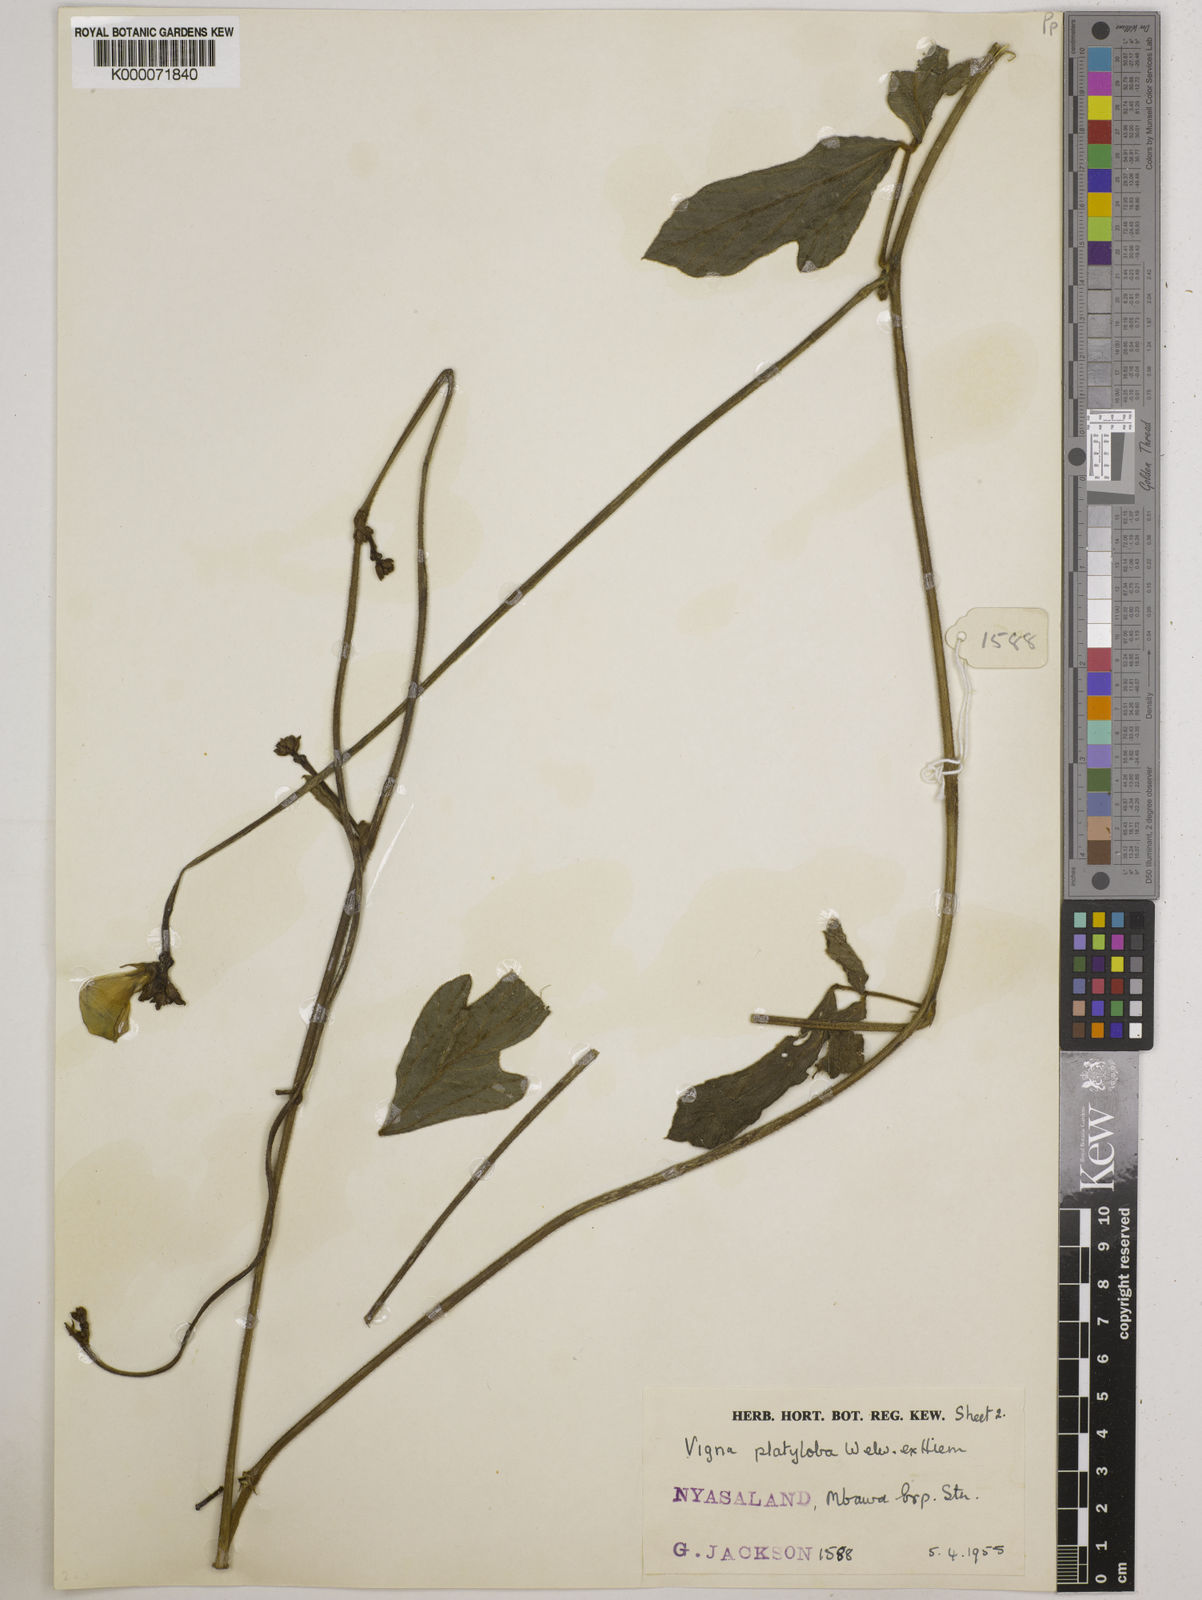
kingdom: Plantae
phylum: Tracheophyta
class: Magnoliopsida
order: Fabales
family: Fabaceae
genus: Vigna
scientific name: Vigna platyloba
